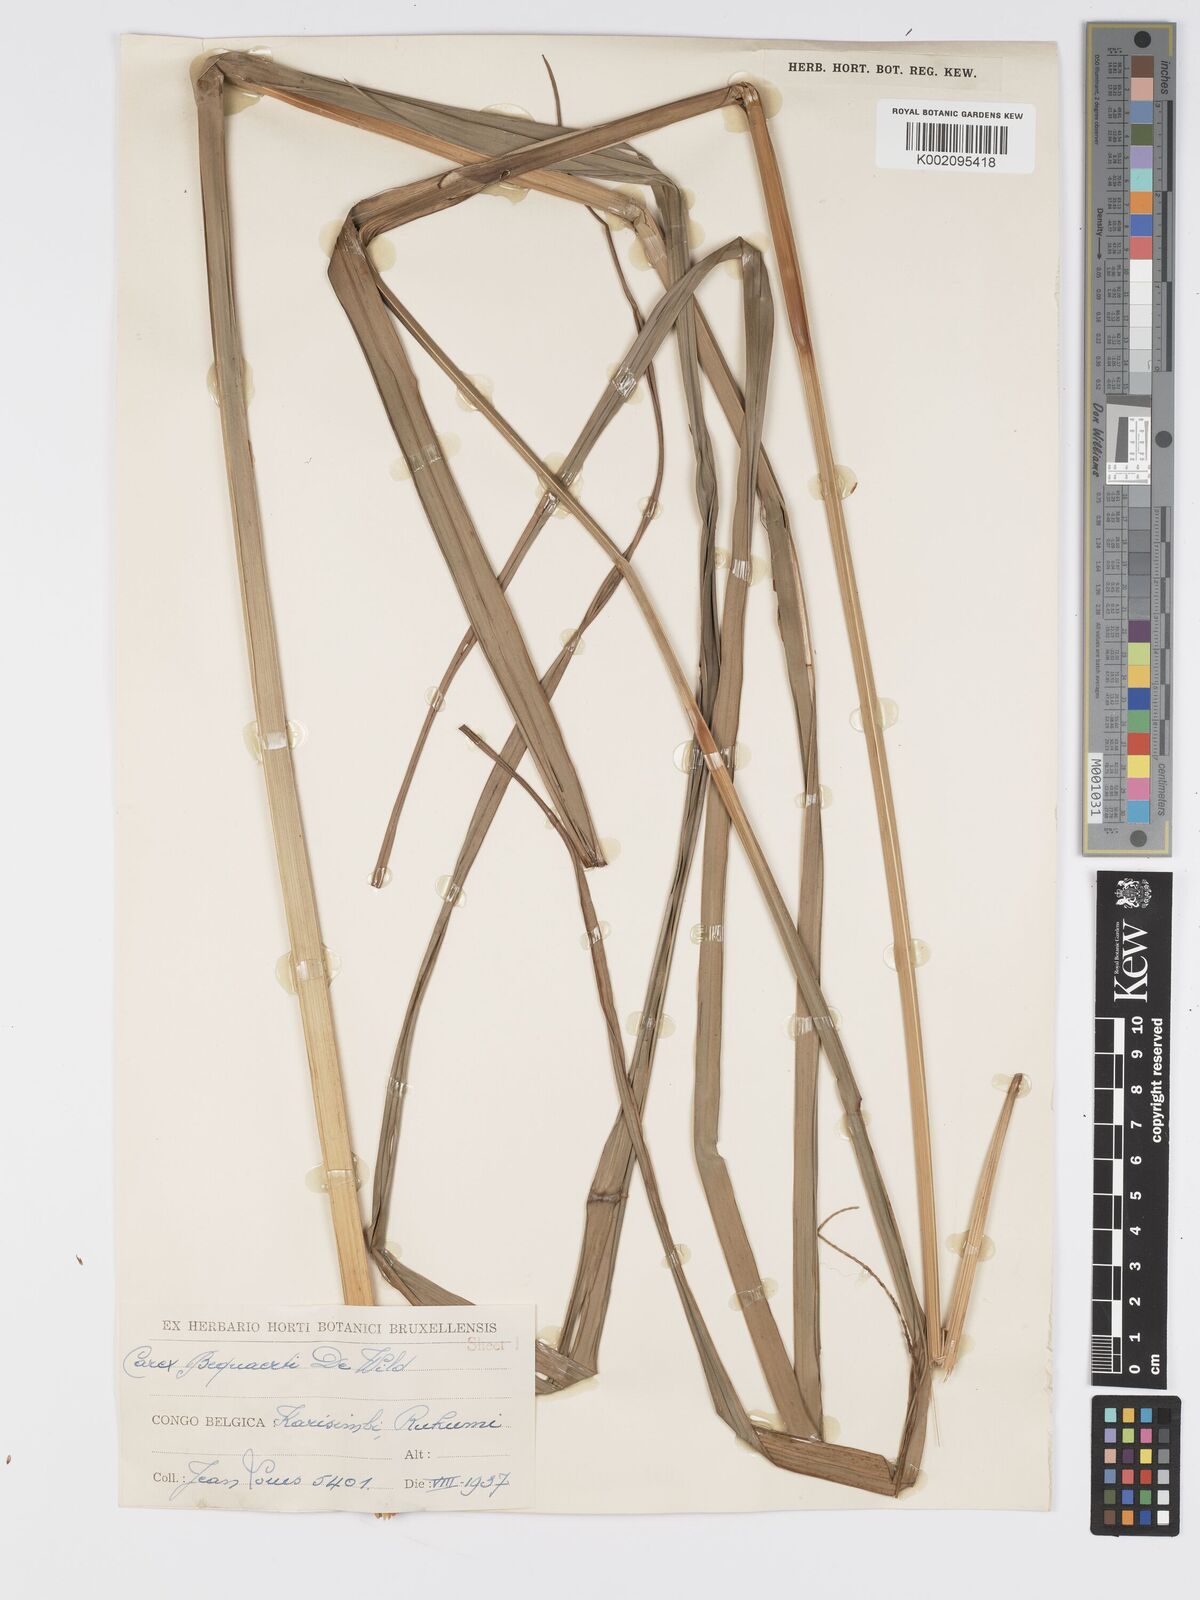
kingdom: Plantae
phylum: Tracheophyta
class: Liliopsida
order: Poales
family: Cyperaceae
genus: Carex
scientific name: Carex bequaertii
